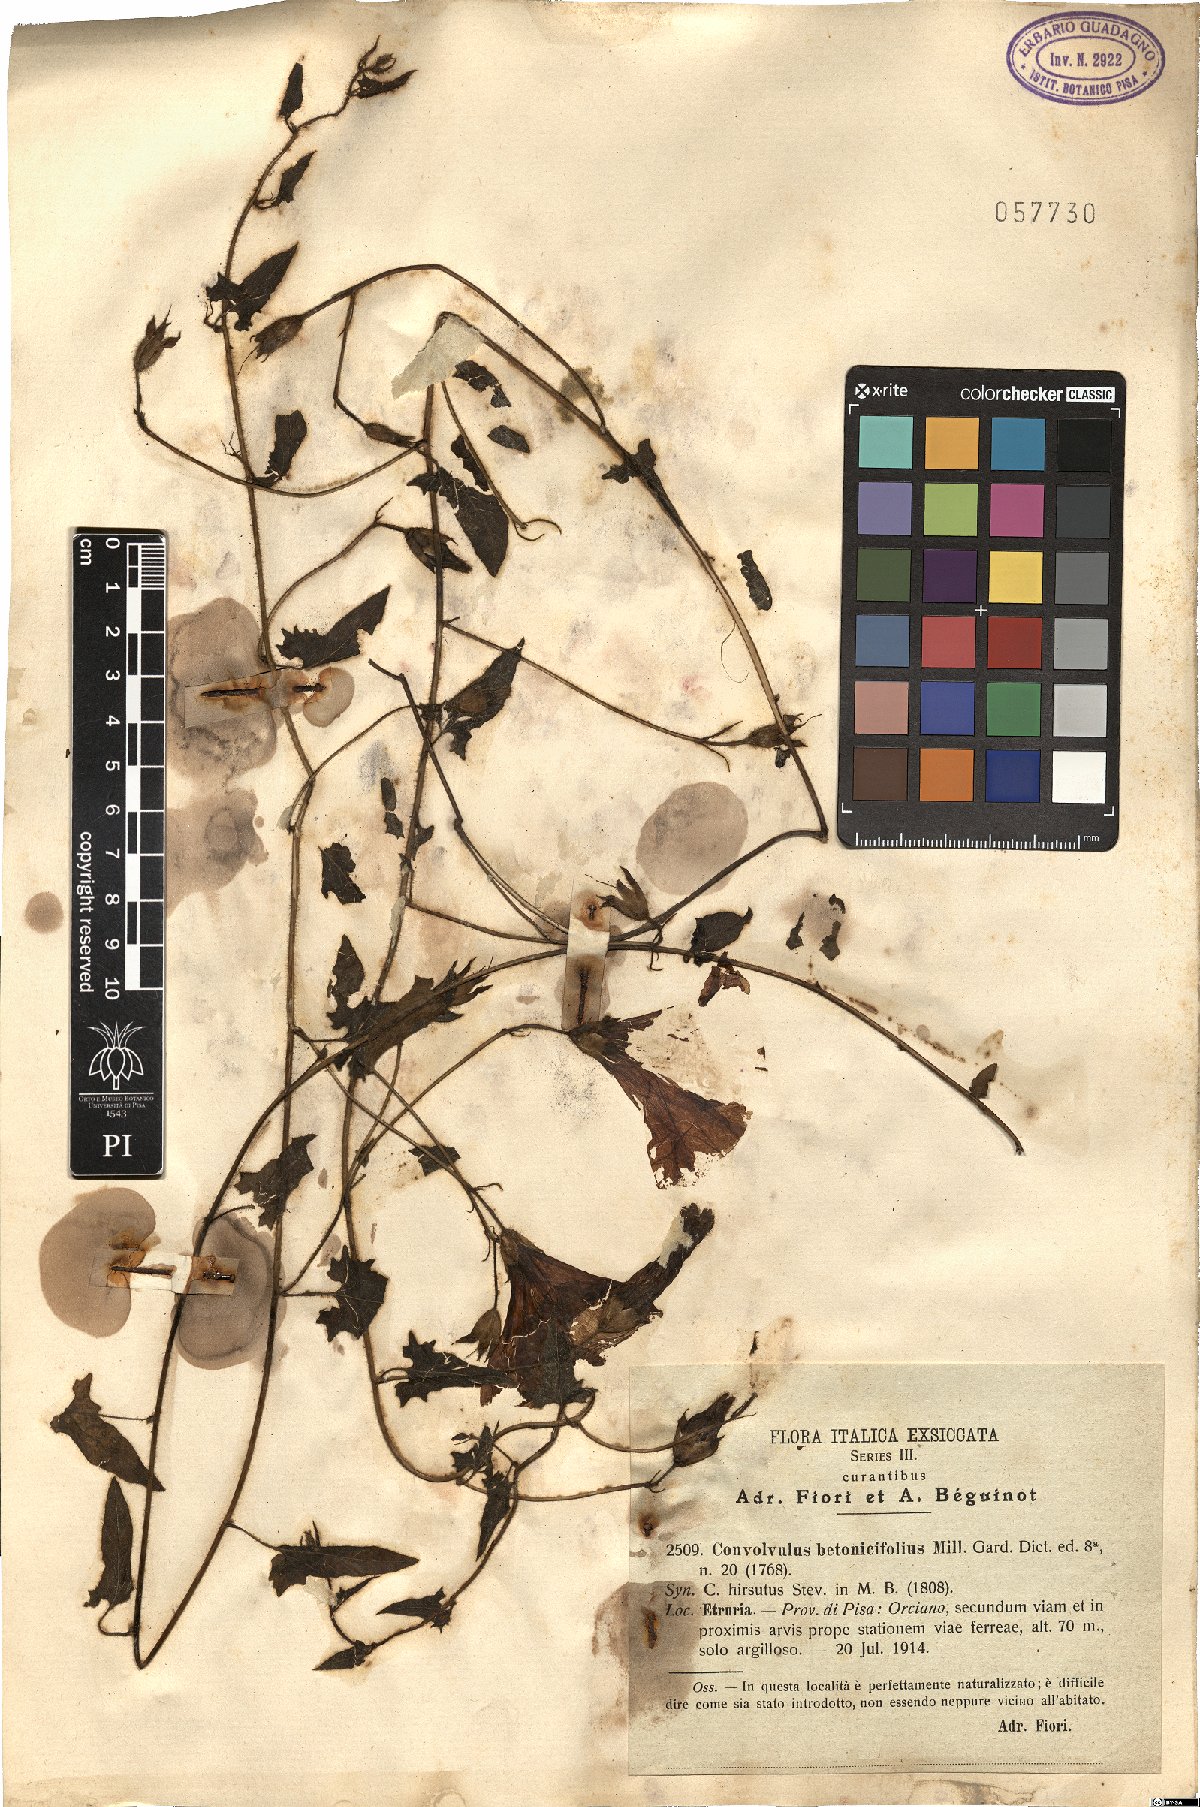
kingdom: Plantae
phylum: Tracheophyta
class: Magnoliopsida
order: Solanales
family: Convolvulaceae
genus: Convolvulus
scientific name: Convolvulus betonicifolius
